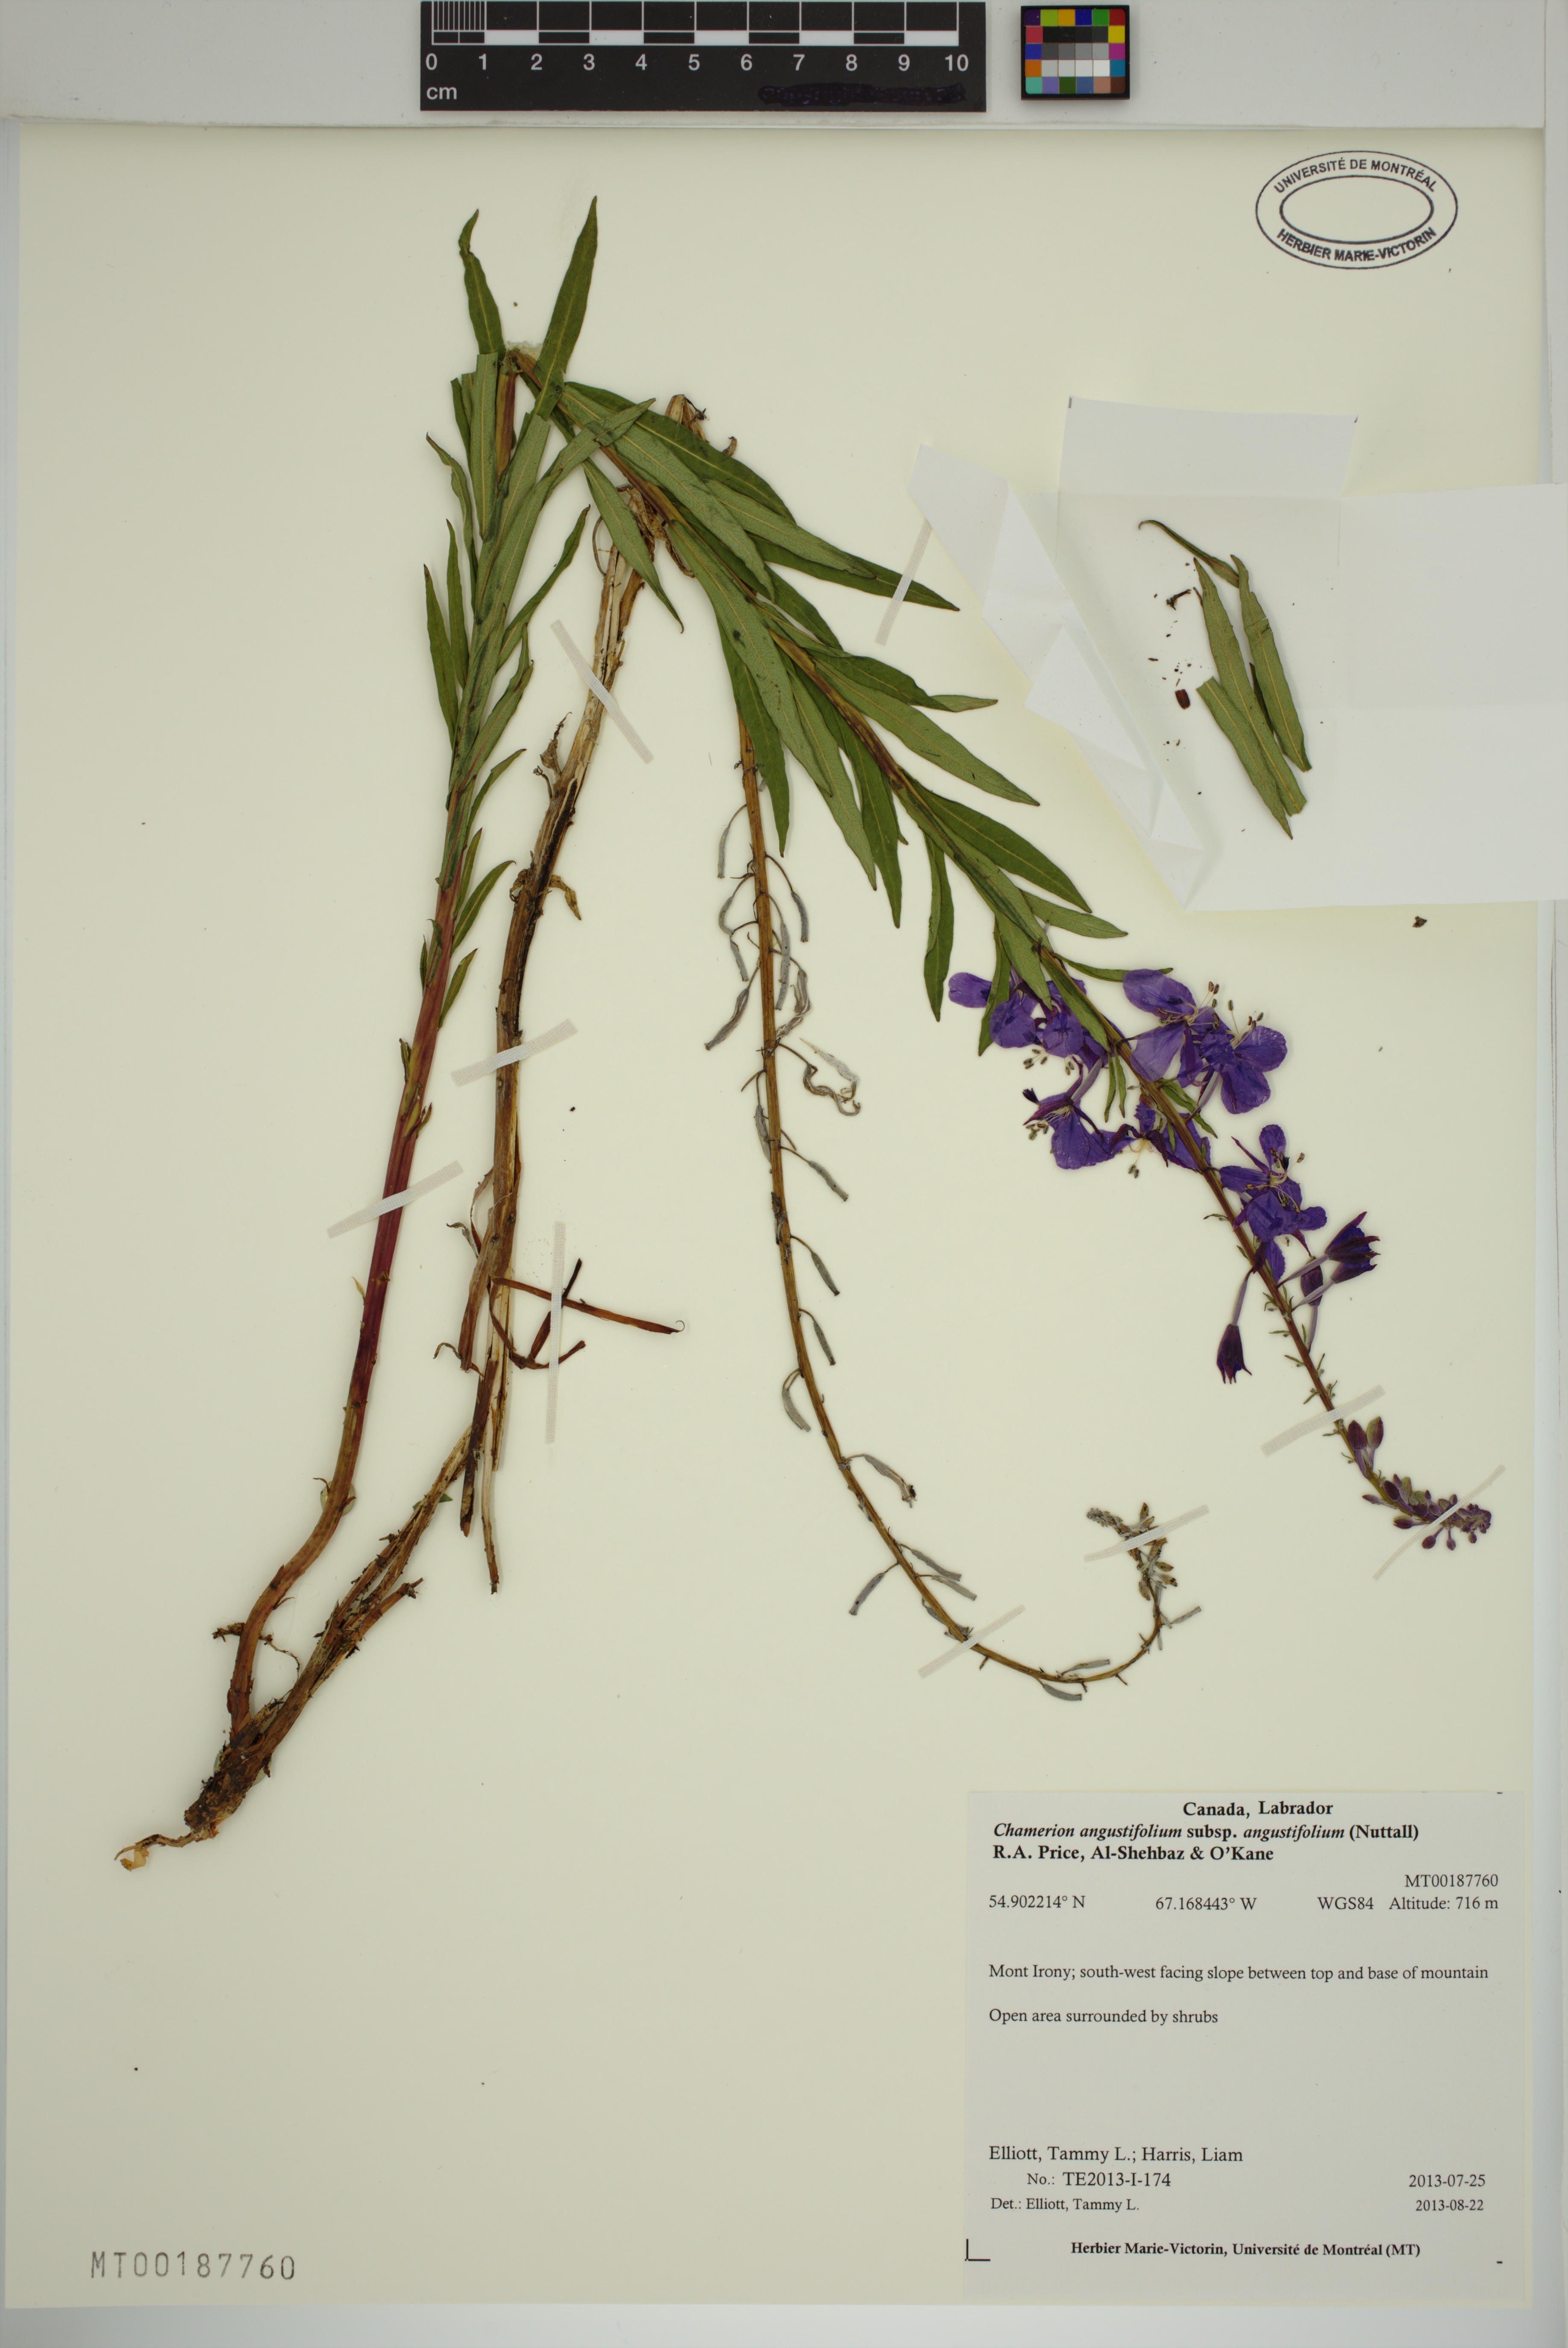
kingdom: Plantae
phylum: Tracheophyta
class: Magnoliopsida
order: Myrtales
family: Onagraceae
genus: Chamaenerion
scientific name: Chamaenerion angustifolium
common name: Fireweed
